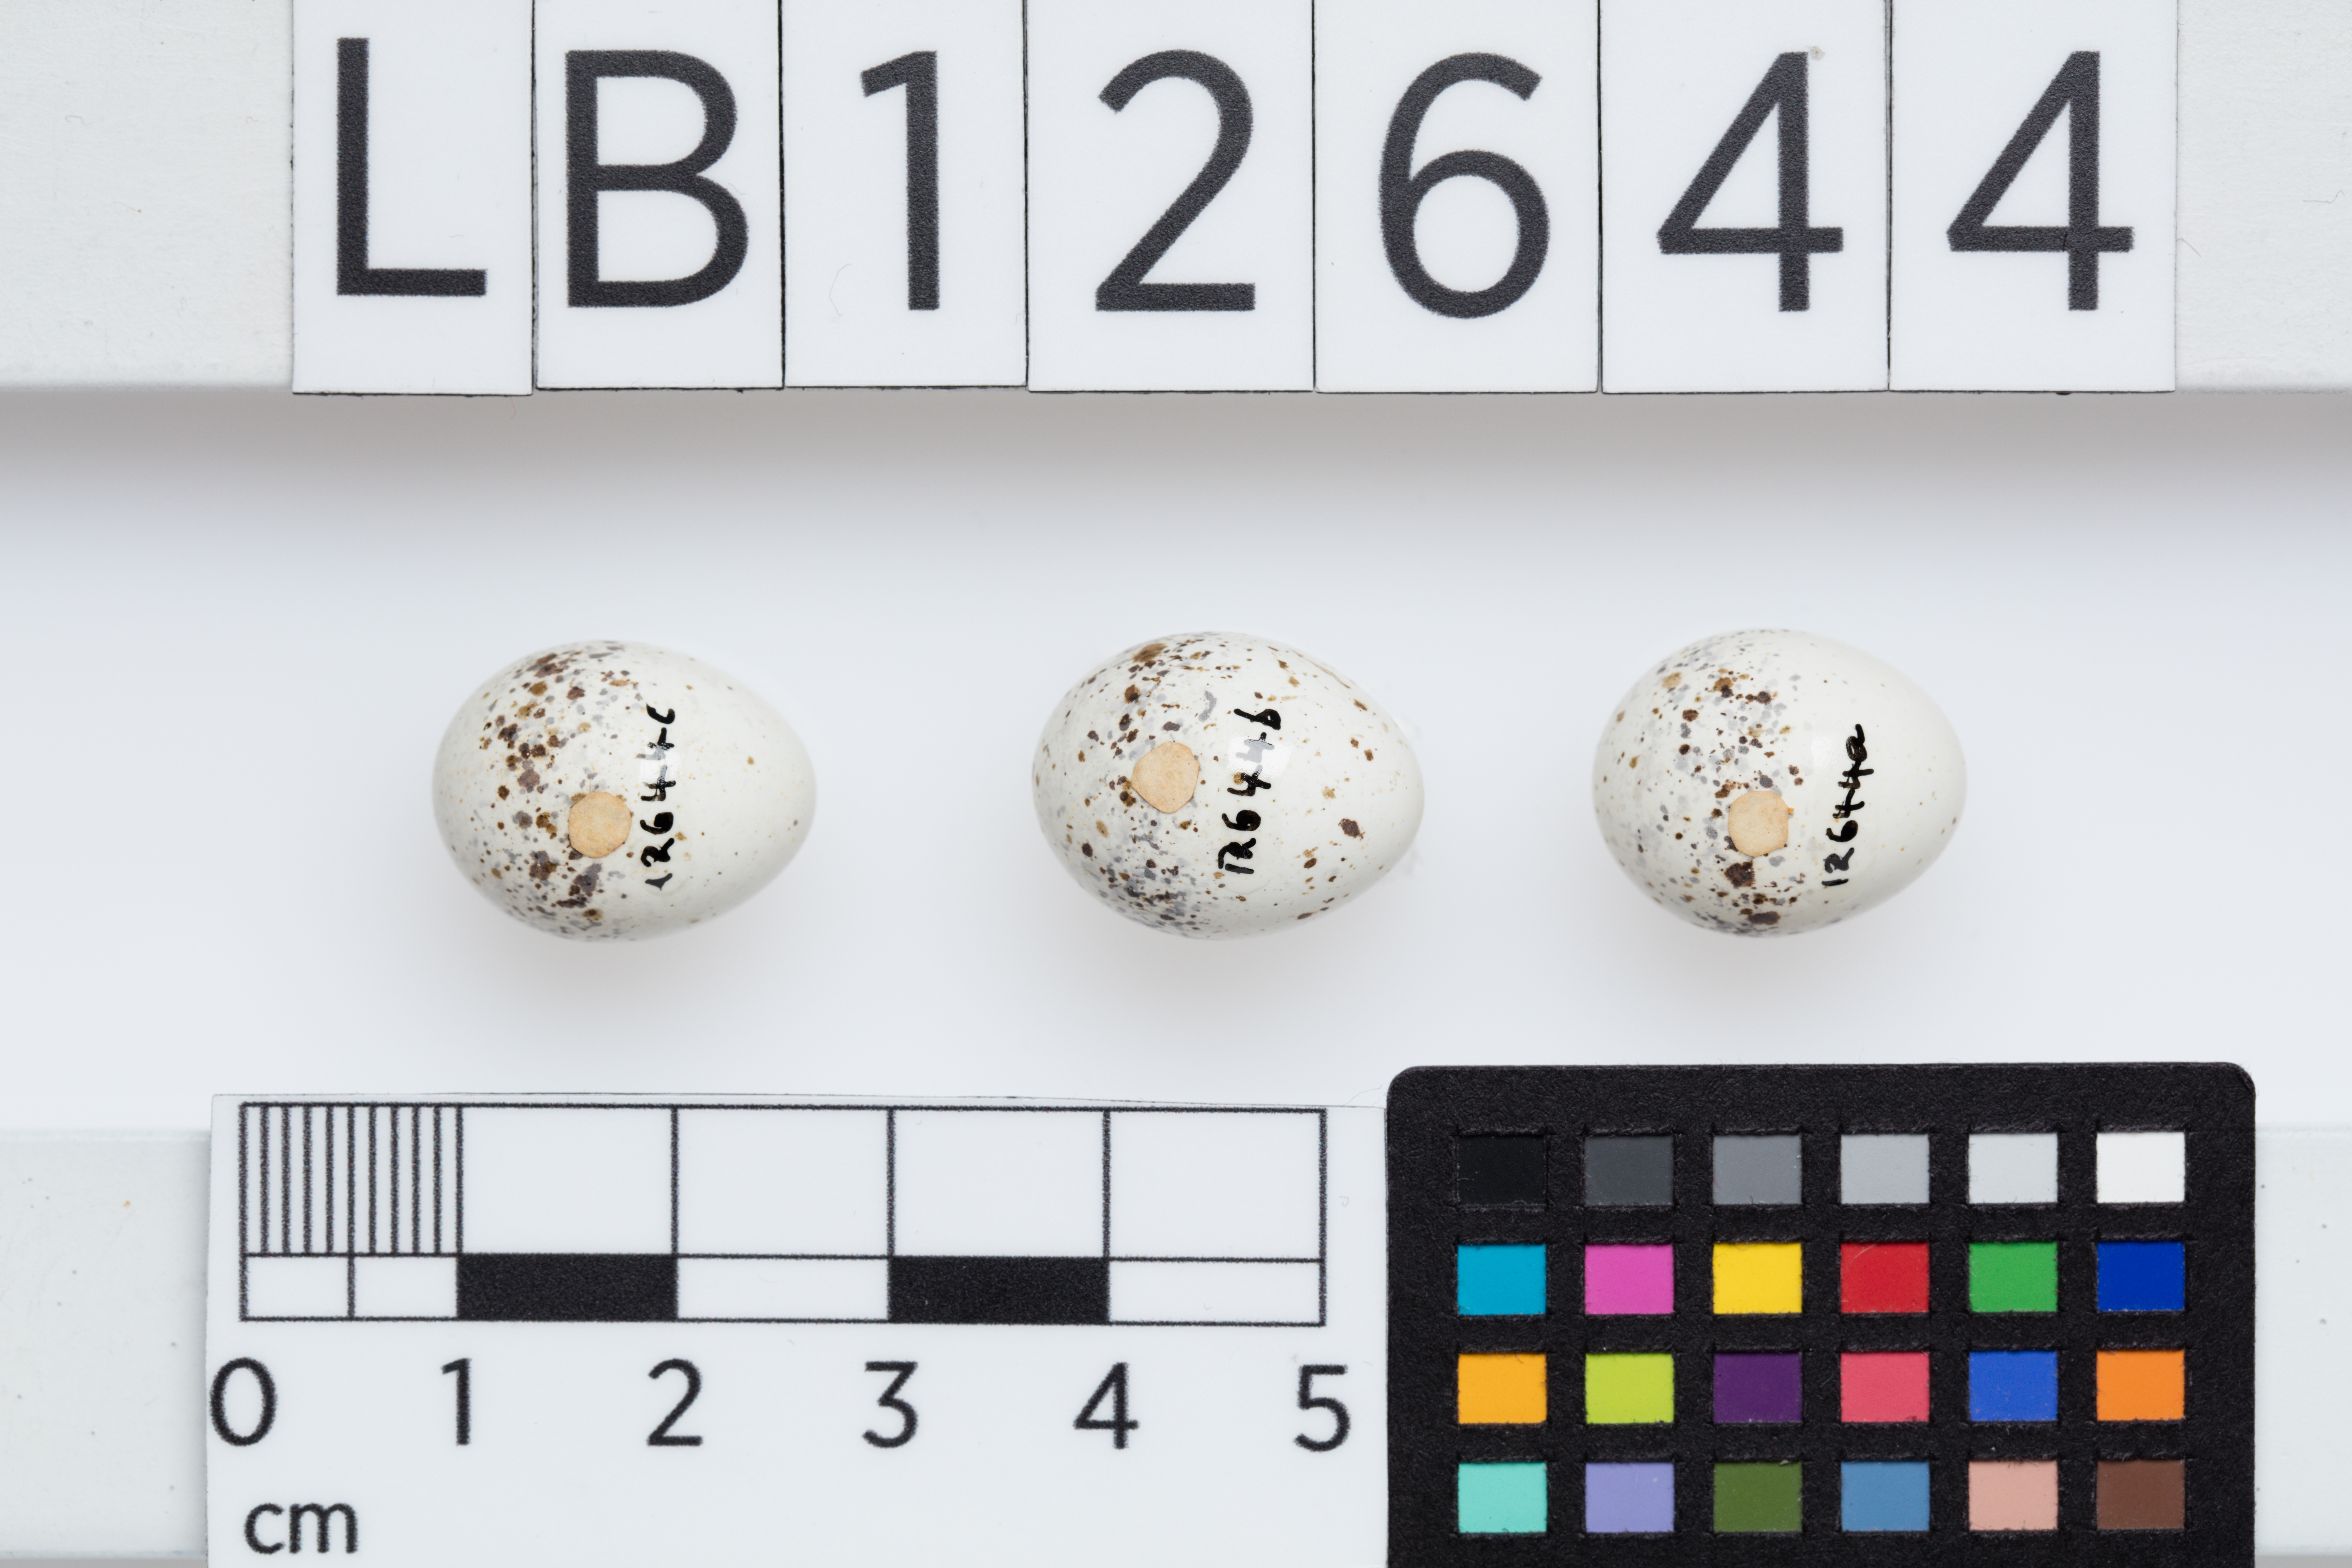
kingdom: Animalia
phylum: Chordata
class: Aves
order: Passeriformes
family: Petroicidae
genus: Microeca
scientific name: Microeca fascinans
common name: Jacky winter
